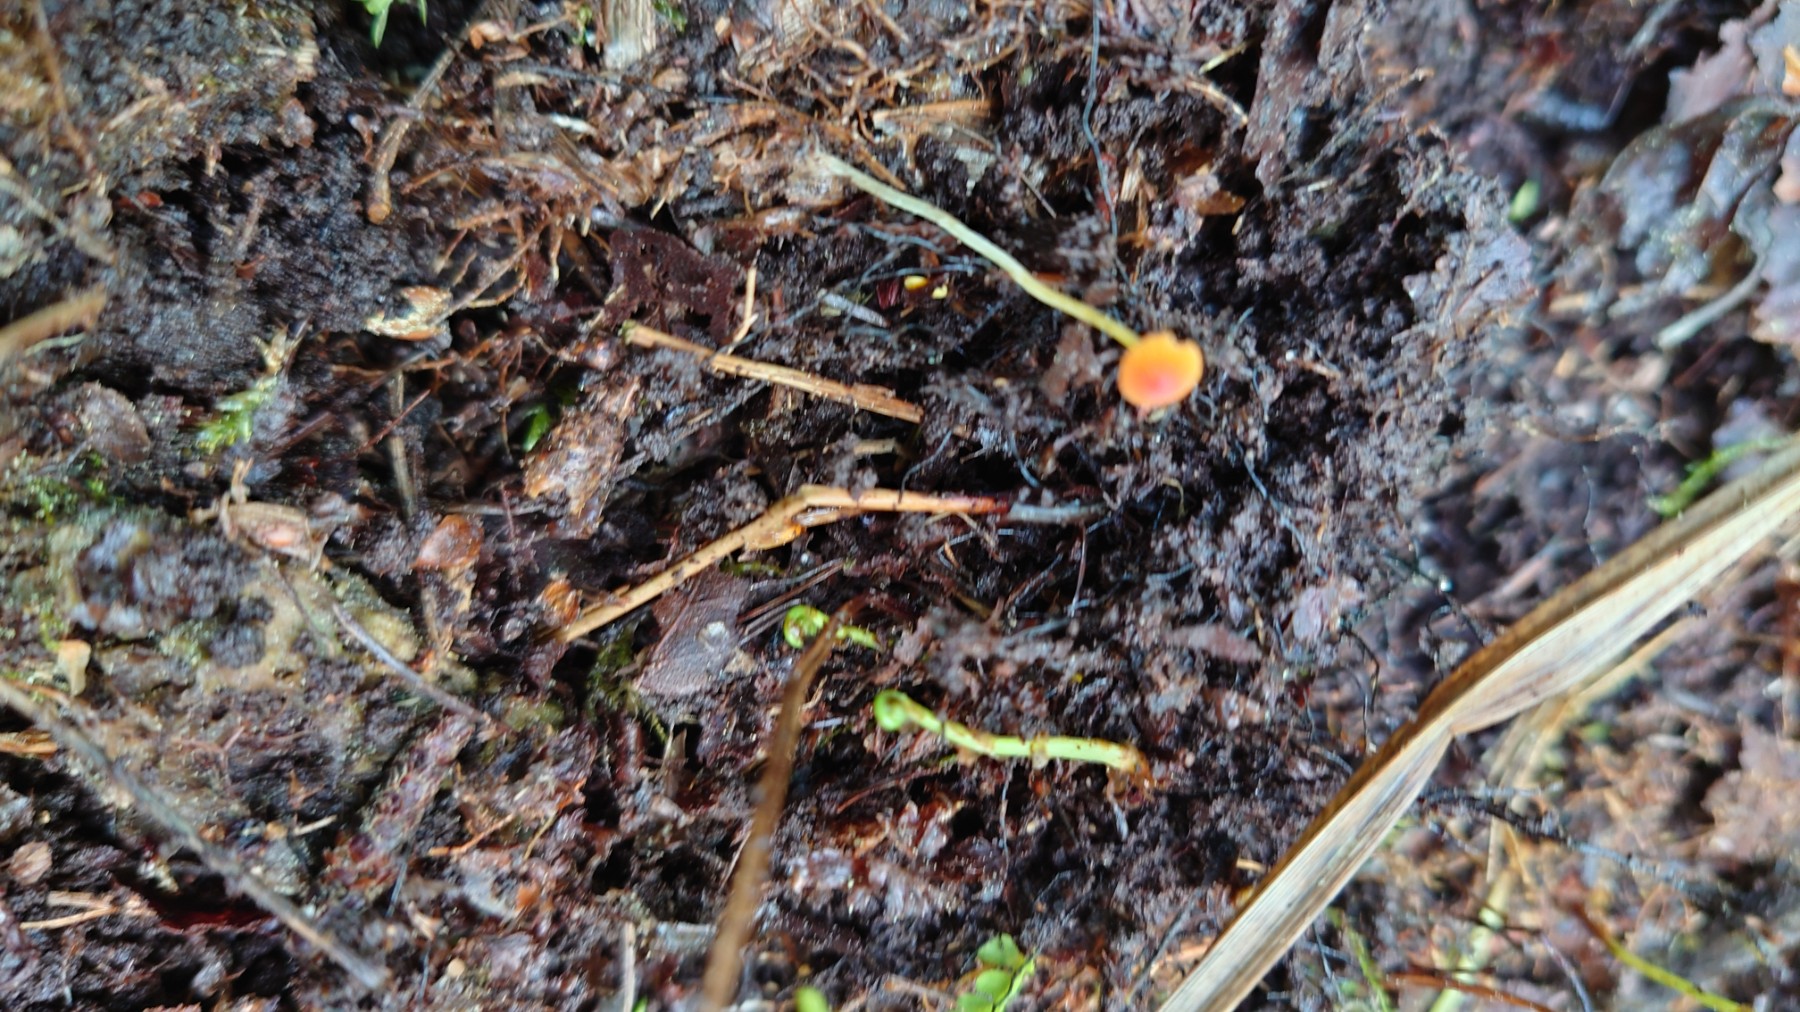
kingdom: Fungi
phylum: Basidiomycota
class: Agaricomycetes
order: Agaricales
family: Mycenaceae
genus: Mycena
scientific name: Mycena acicula
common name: orange huesvamp
